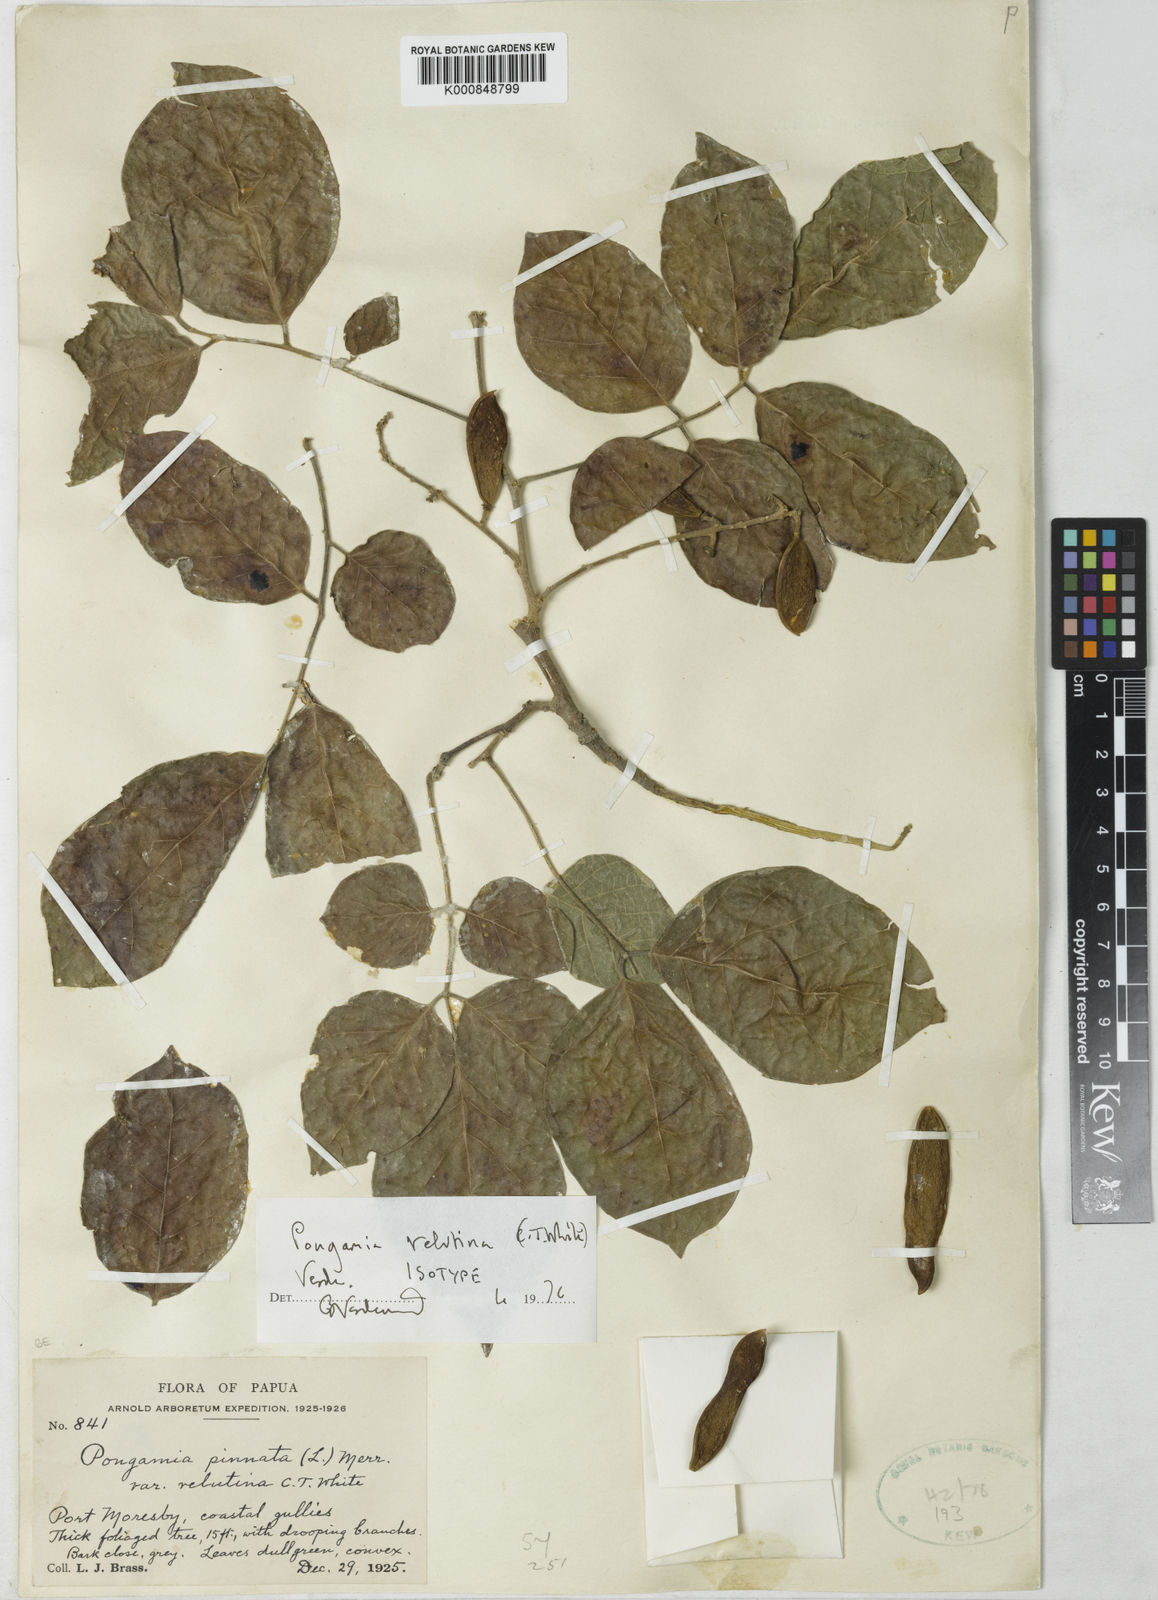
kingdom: Plantae
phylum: Tracheophyta
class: Magnoliopsida
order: Fabales
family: Fabaceae
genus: Millettia
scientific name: Millettia velutina
